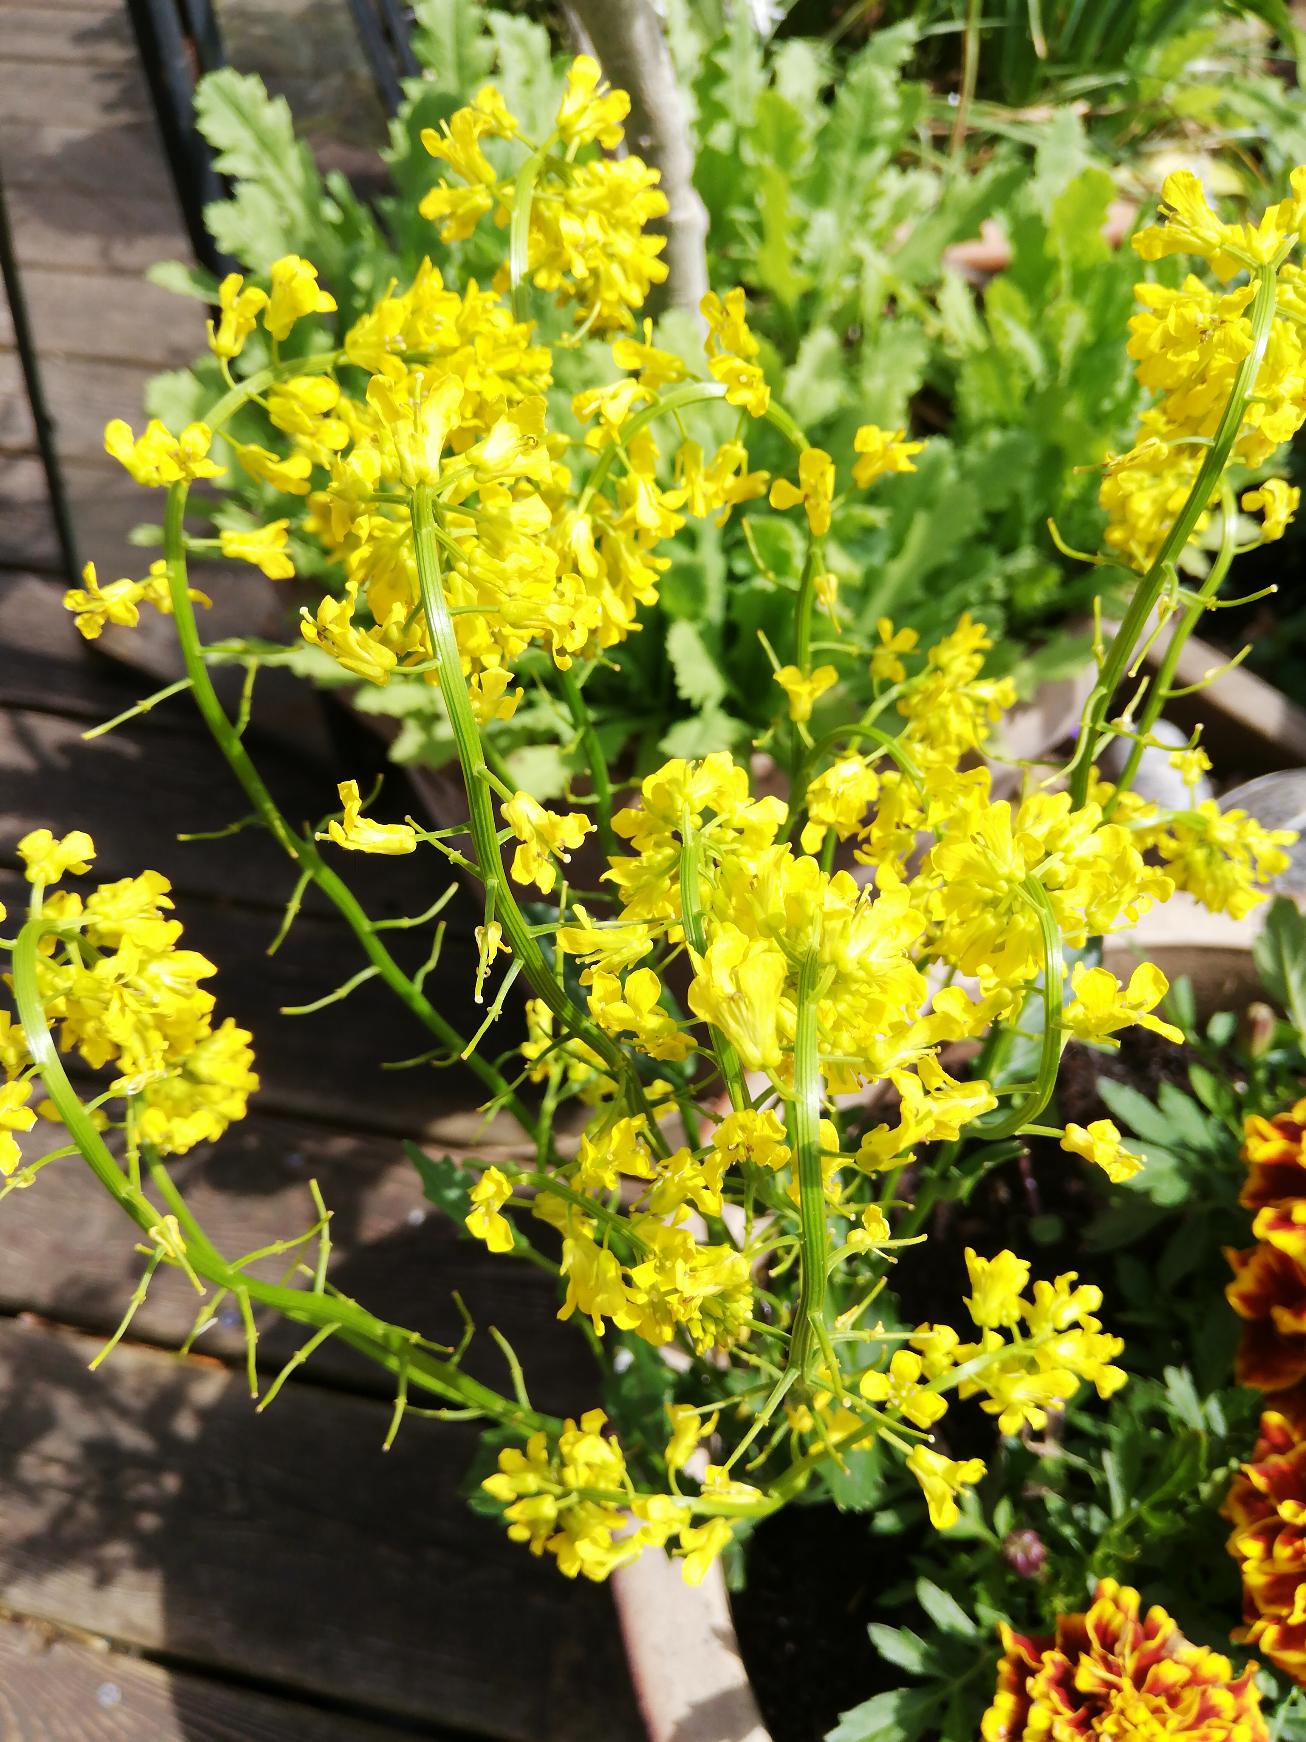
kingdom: Plantae
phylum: Tracheophyta
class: Magnoliopsida
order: Brassicales
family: Brassicaceae
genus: Barbarea
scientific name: Barbarea vulgaris
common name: Udspærret vinterkarse
